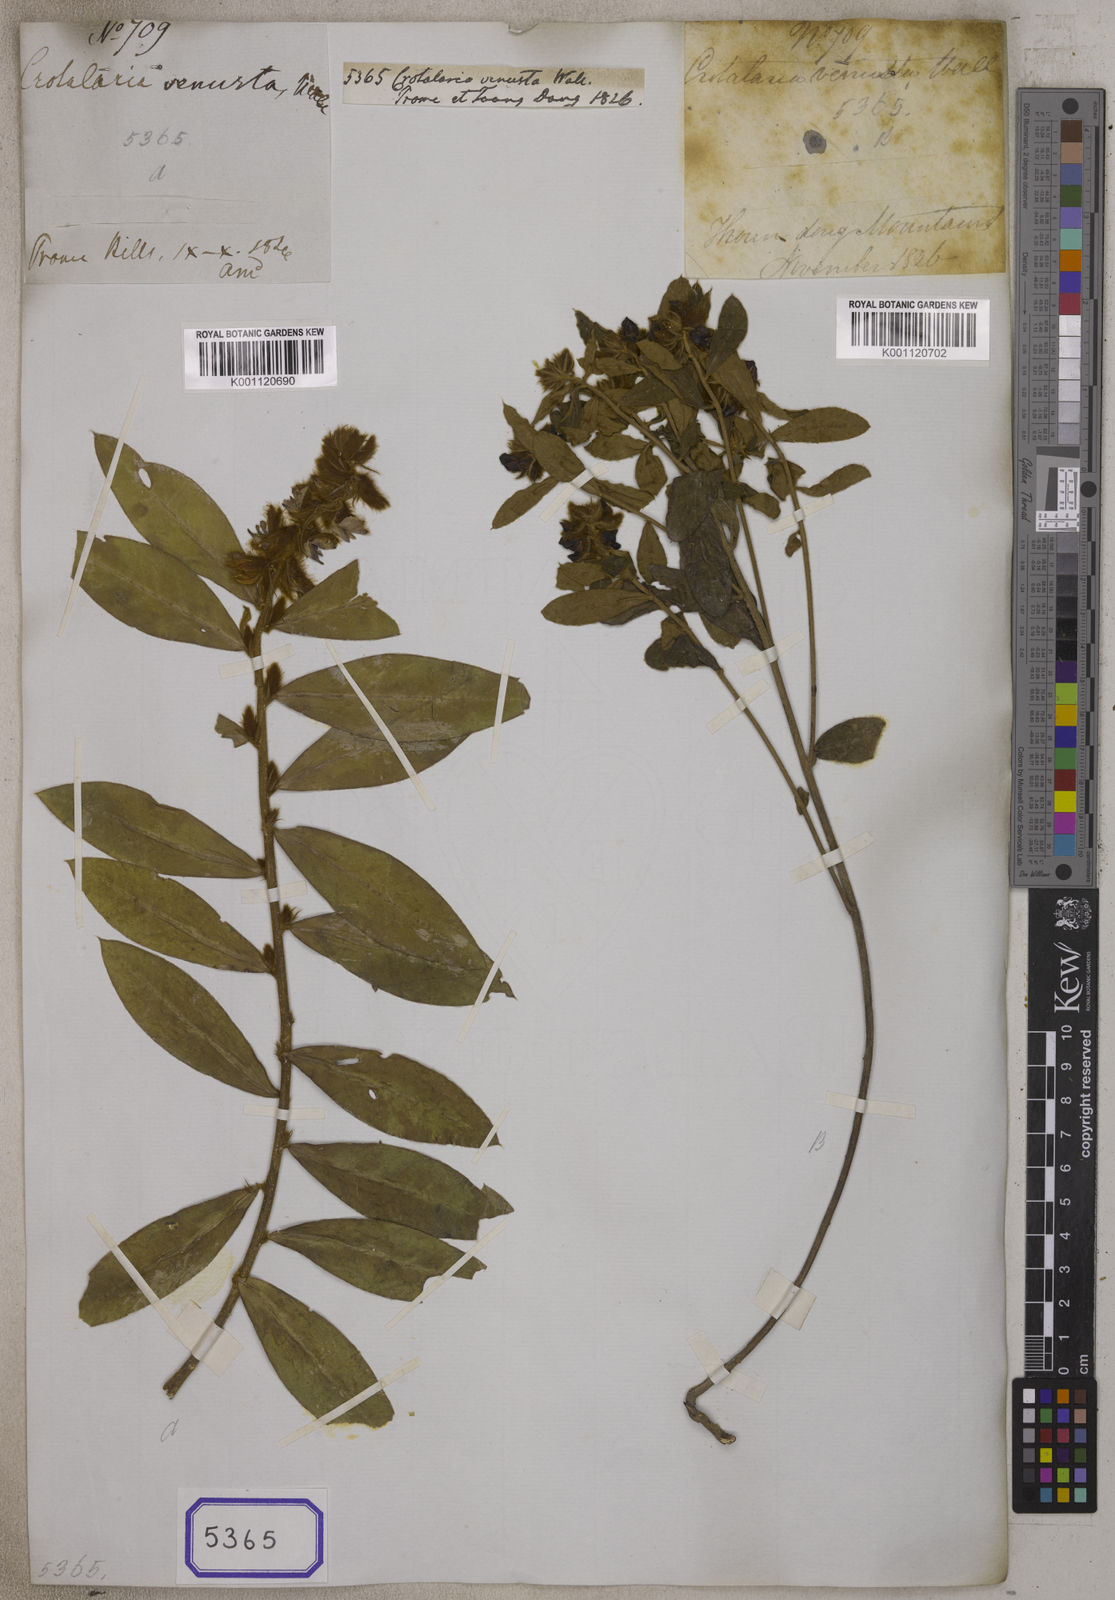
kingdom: Plantae
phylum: Tracheophyta
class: Magnoliopsida
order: Fabales
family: Fabaceae
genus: Crotalaria
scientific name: Crotalaria
